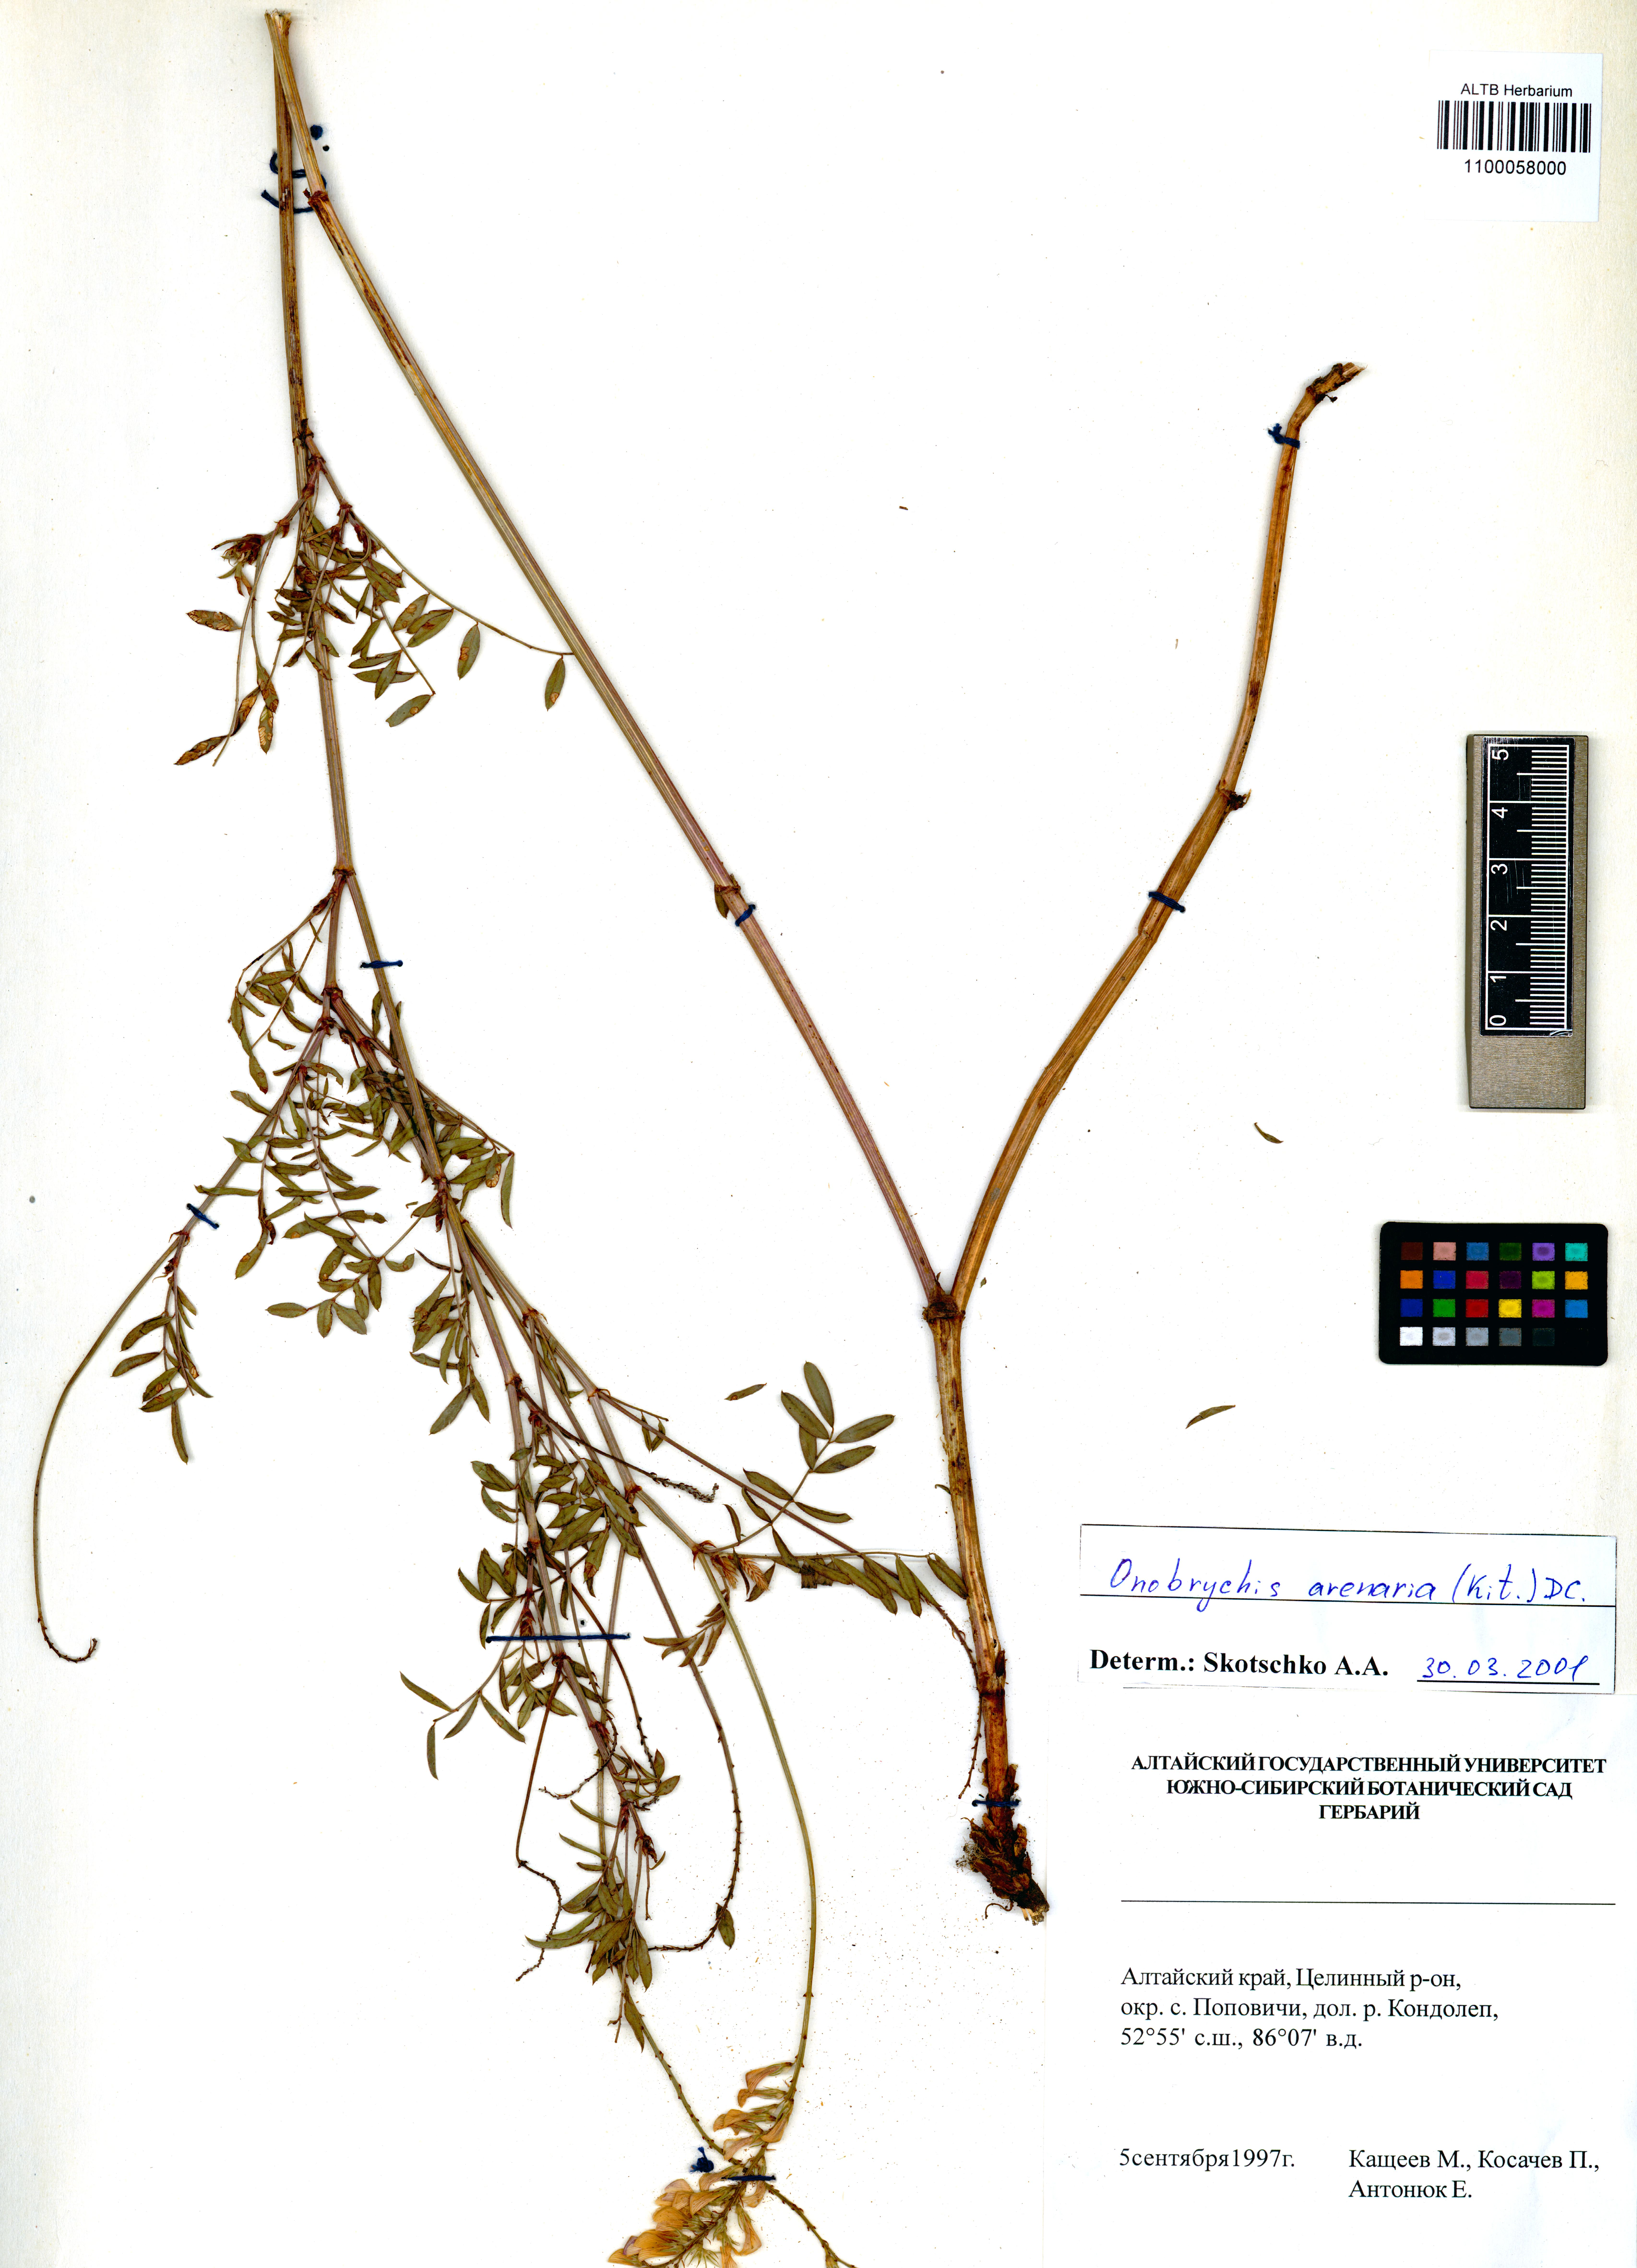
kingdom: Plantae
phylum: Tracheophyta
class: Magnoliopsida
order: Fabales
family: Fabaceae
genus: Onobrychis
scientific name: Onobrychis arenaria
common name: Sand esparcet
